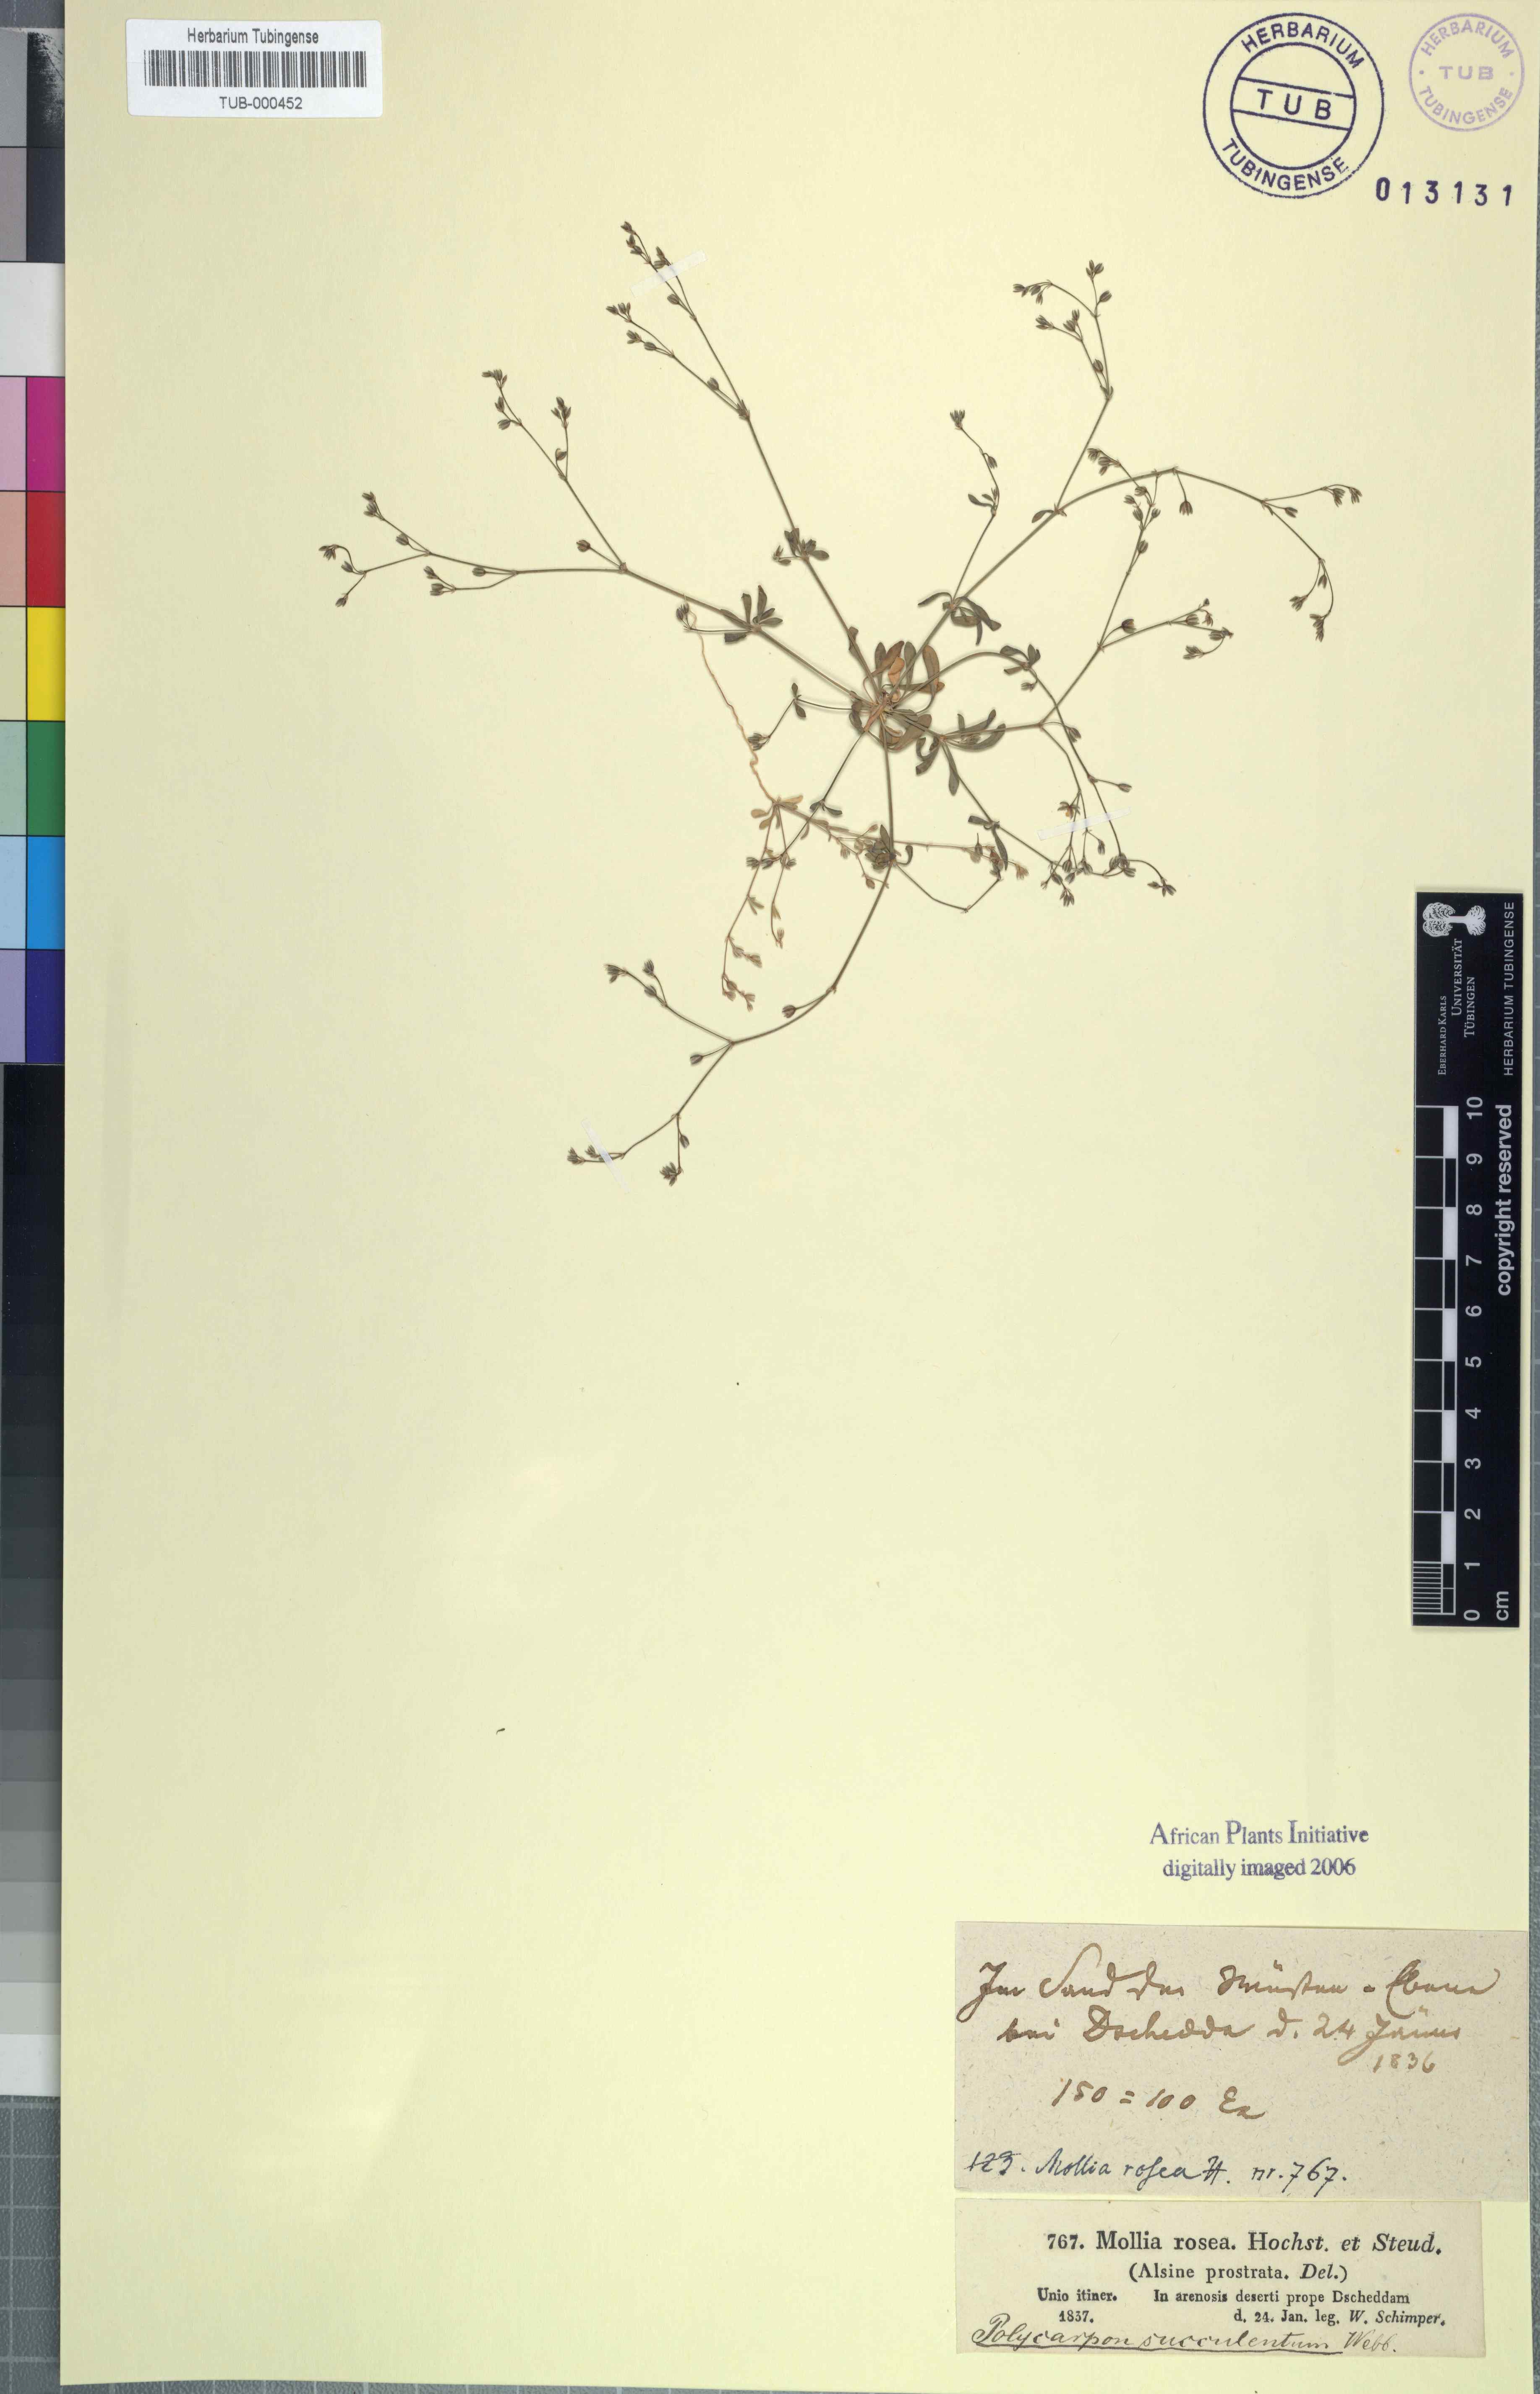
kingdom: Plantae
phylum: Tracheophyta
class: Magnoliopsida
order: Caryophyllales
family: Caryophyllaceae
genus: Polycarpon
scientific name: Polycarpon succulentum
